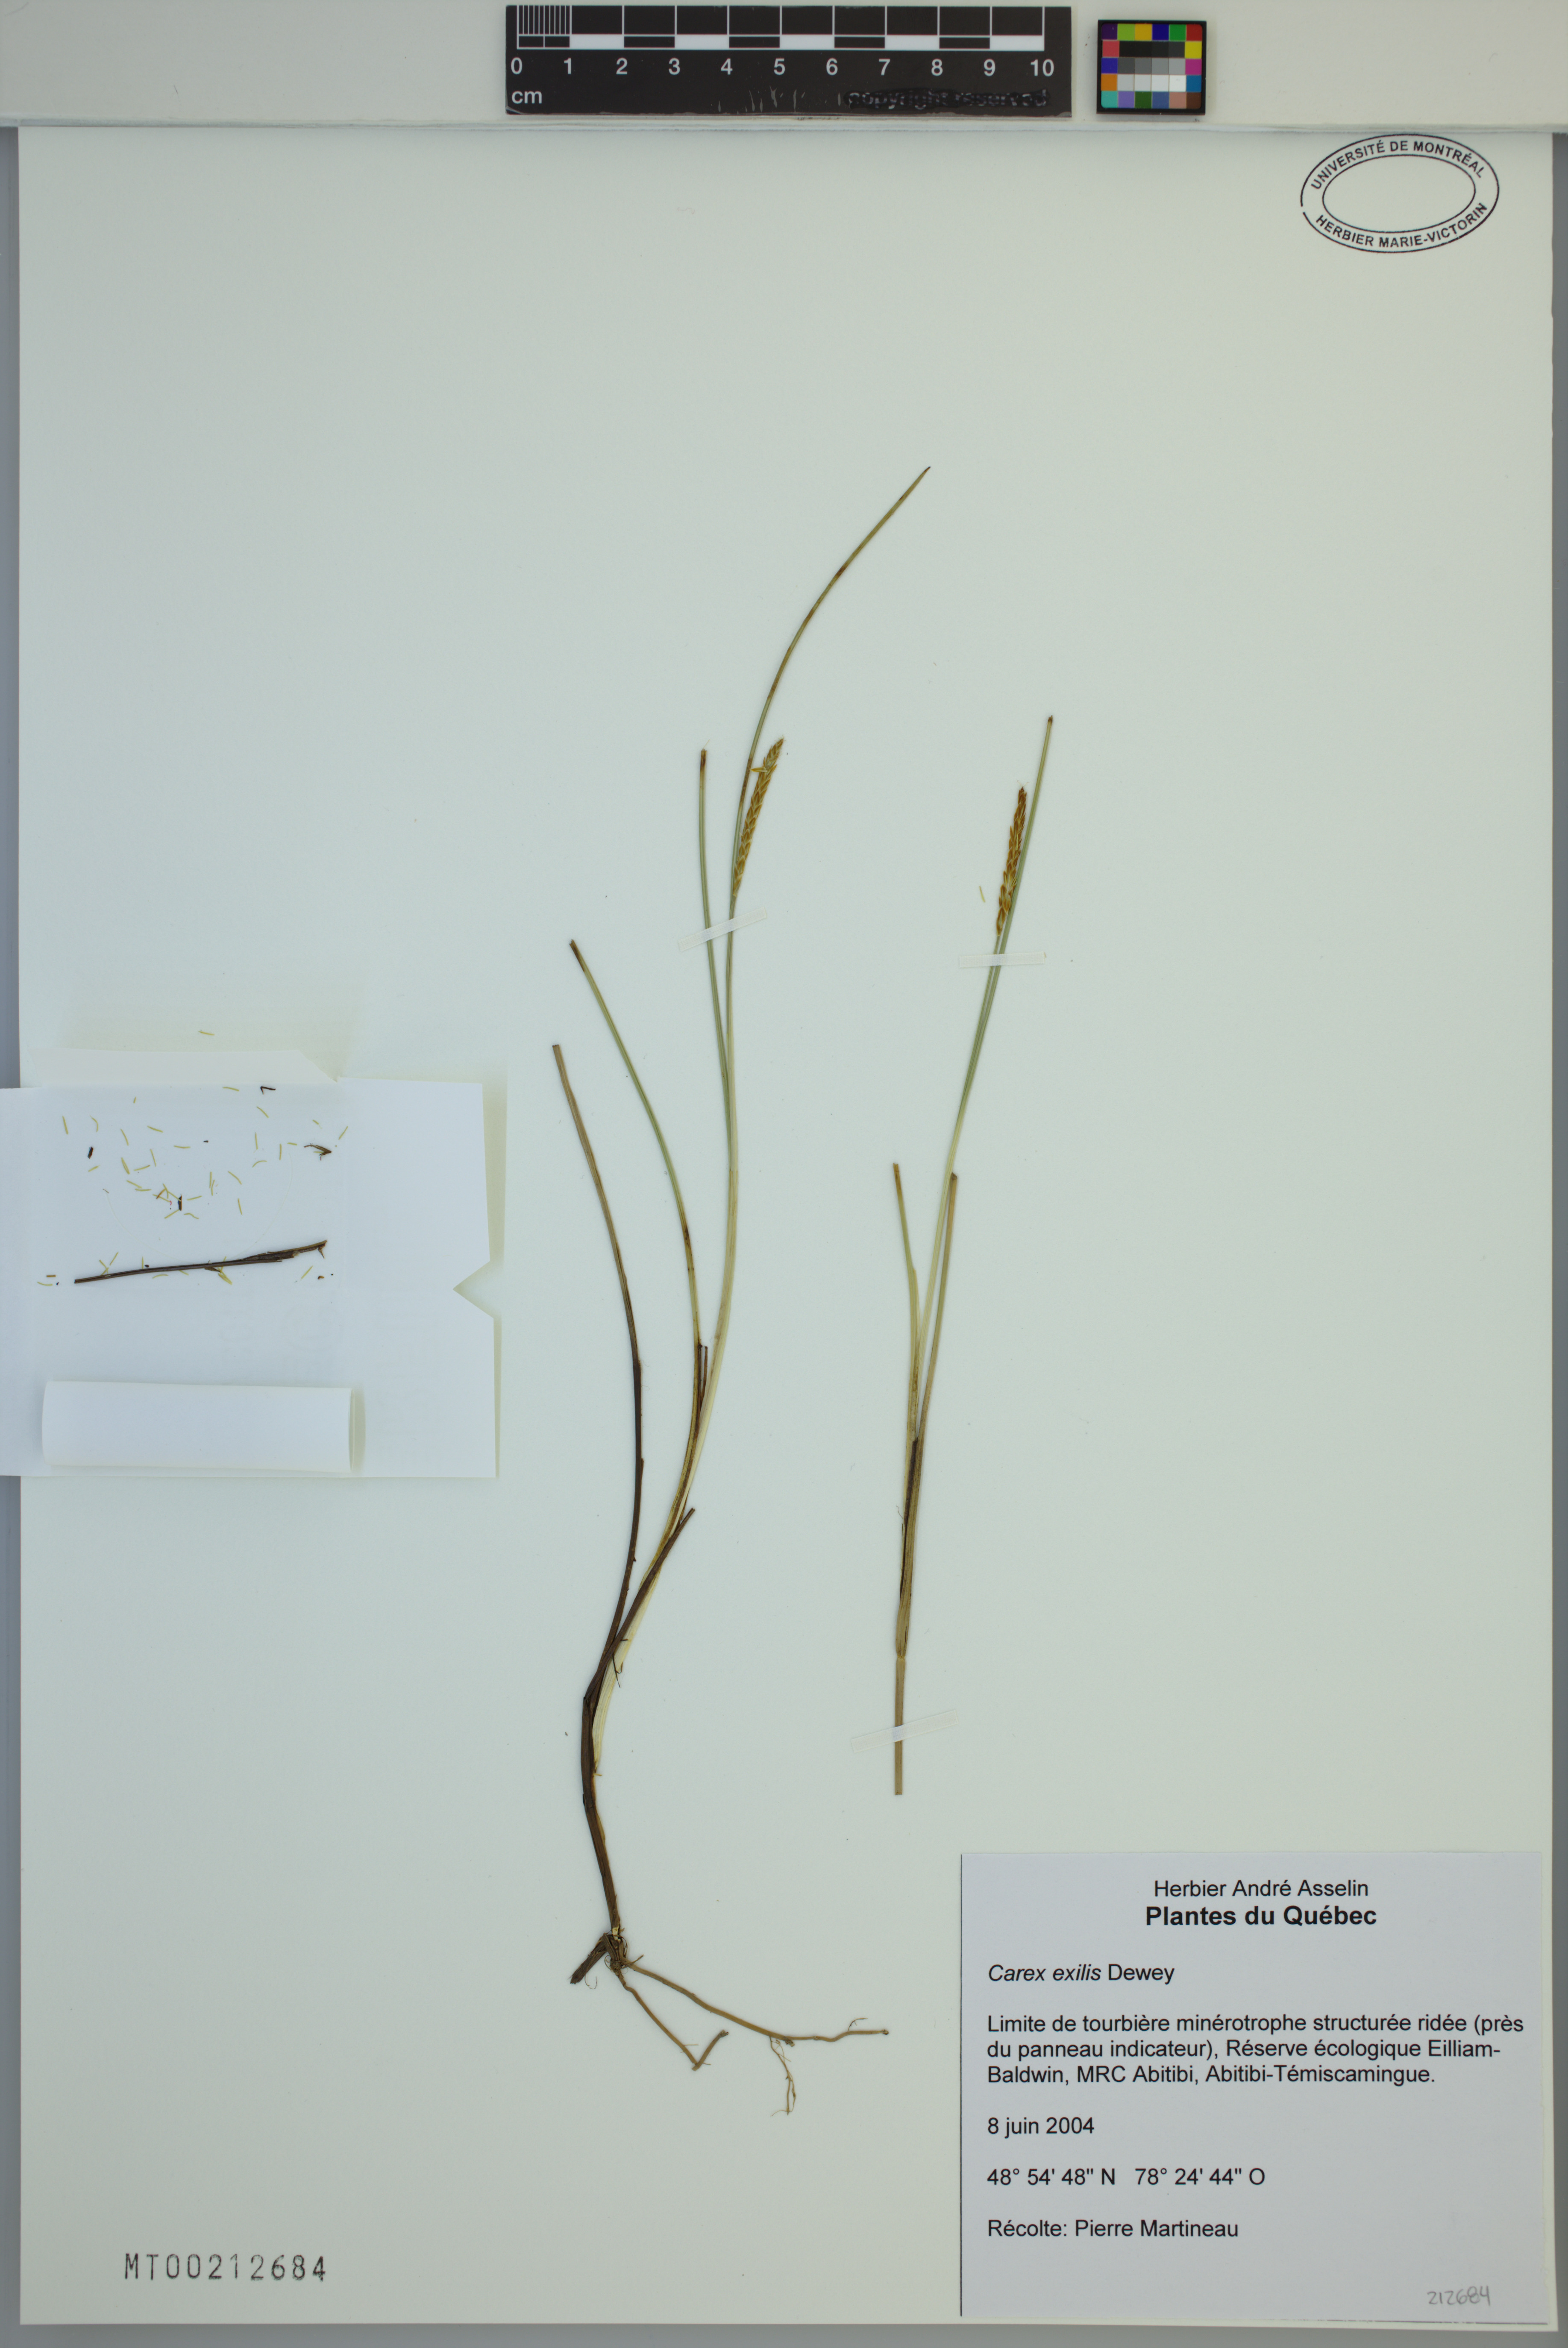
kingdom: Plantae
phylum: Tracheophyta
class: Liliopsida
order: Poales
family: Cyperaceae
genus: Carex
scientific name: Carex exilis
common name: Coastal sedge
